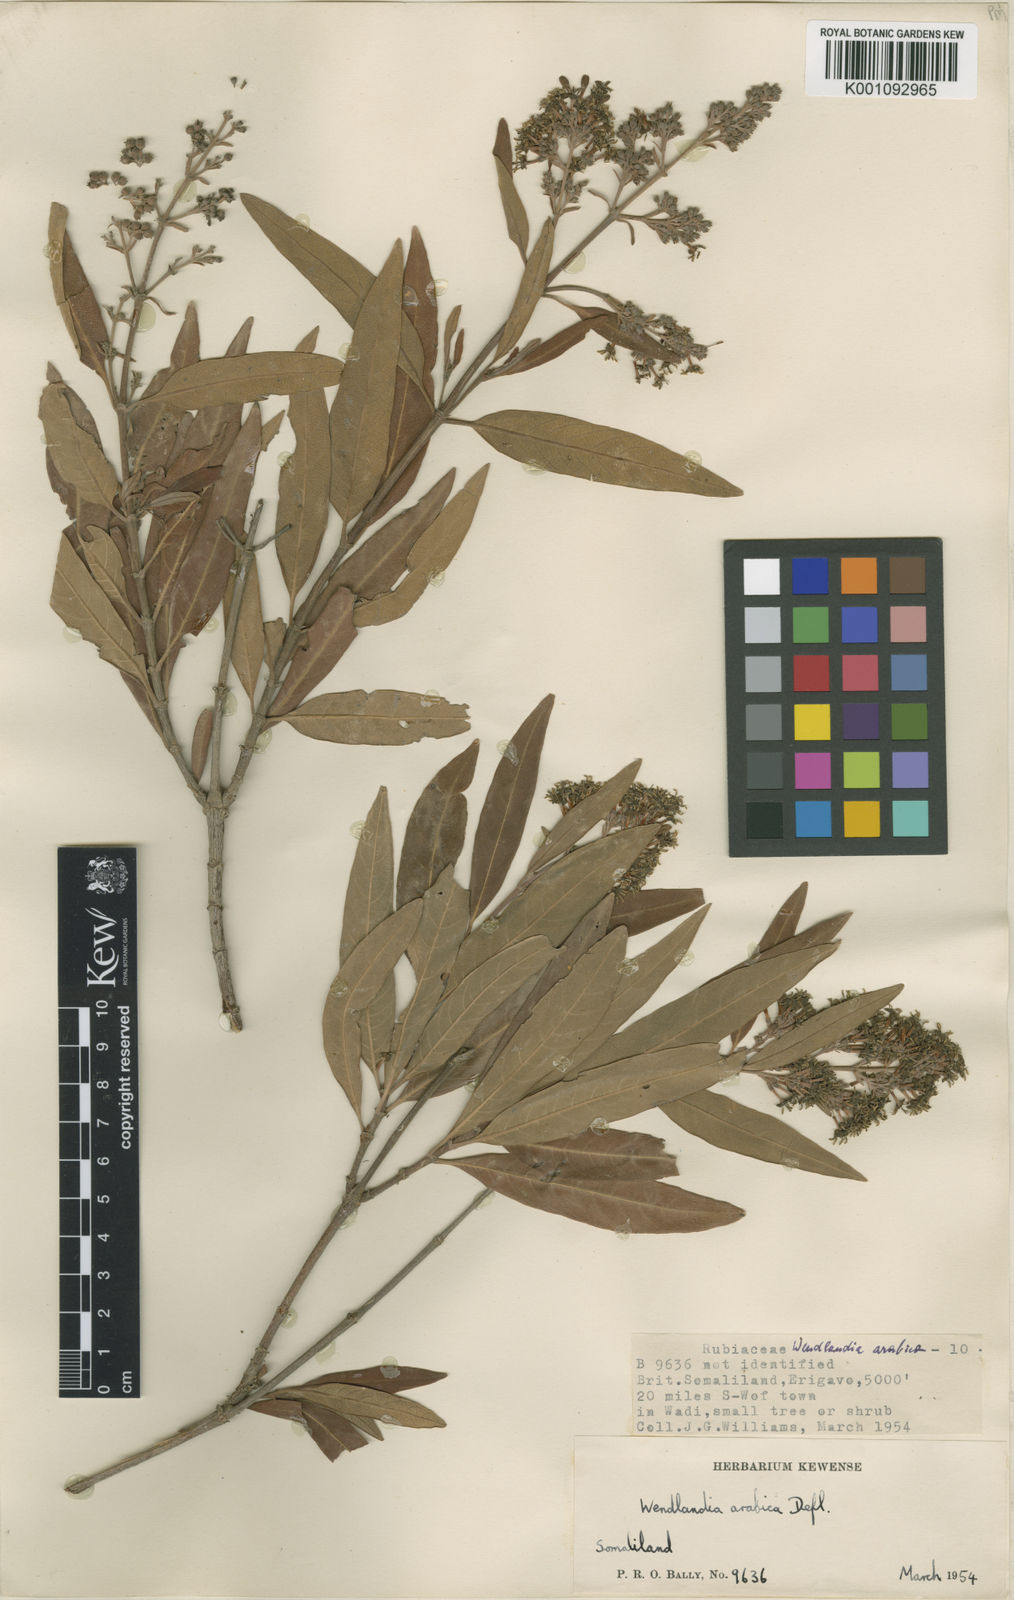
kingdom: Plantae
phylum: Tracheophyta
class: Magnoliopsida
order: Gentianales
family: Rubiaceae
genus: Wendlandia
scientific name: Wendlandia arabica
